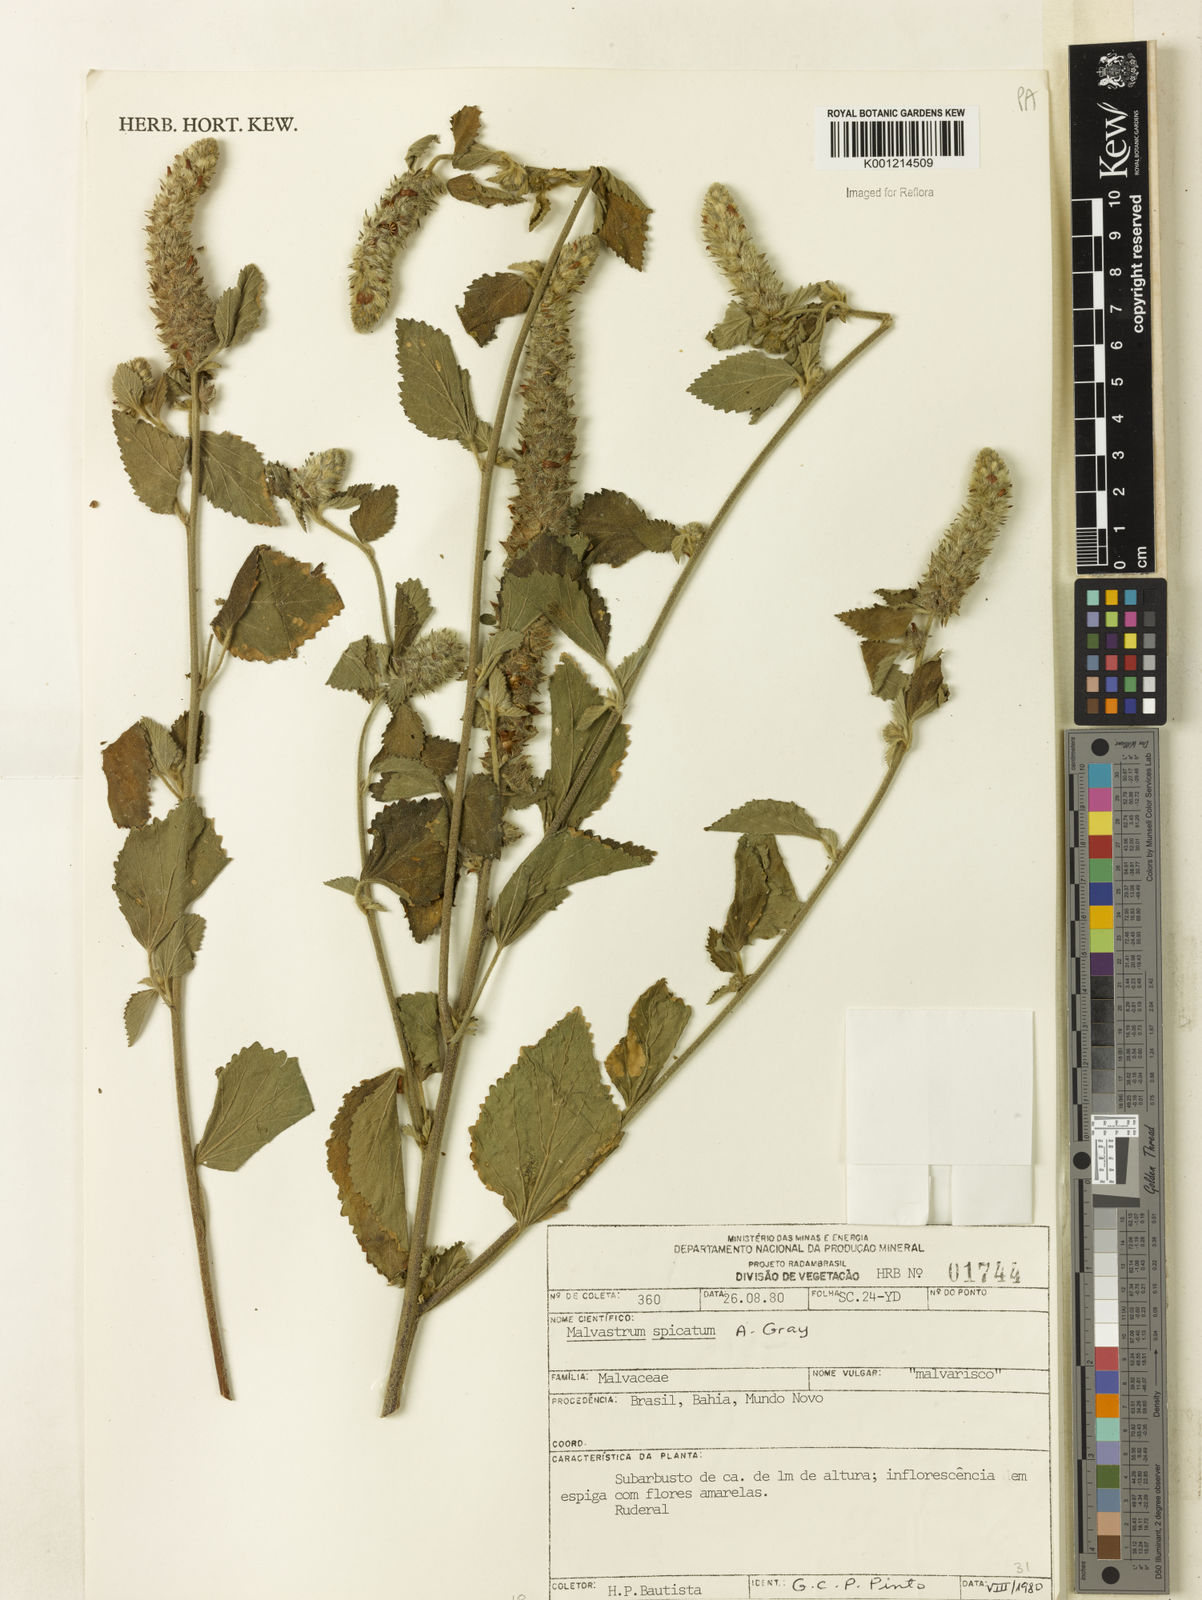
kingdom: Plantae
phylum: Tracheophyta
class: Magnoliopsida
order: Malvales
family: Malvaceae
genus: Malvastrum
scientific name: Malvastrum americanum
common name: Spiked malvastrum
